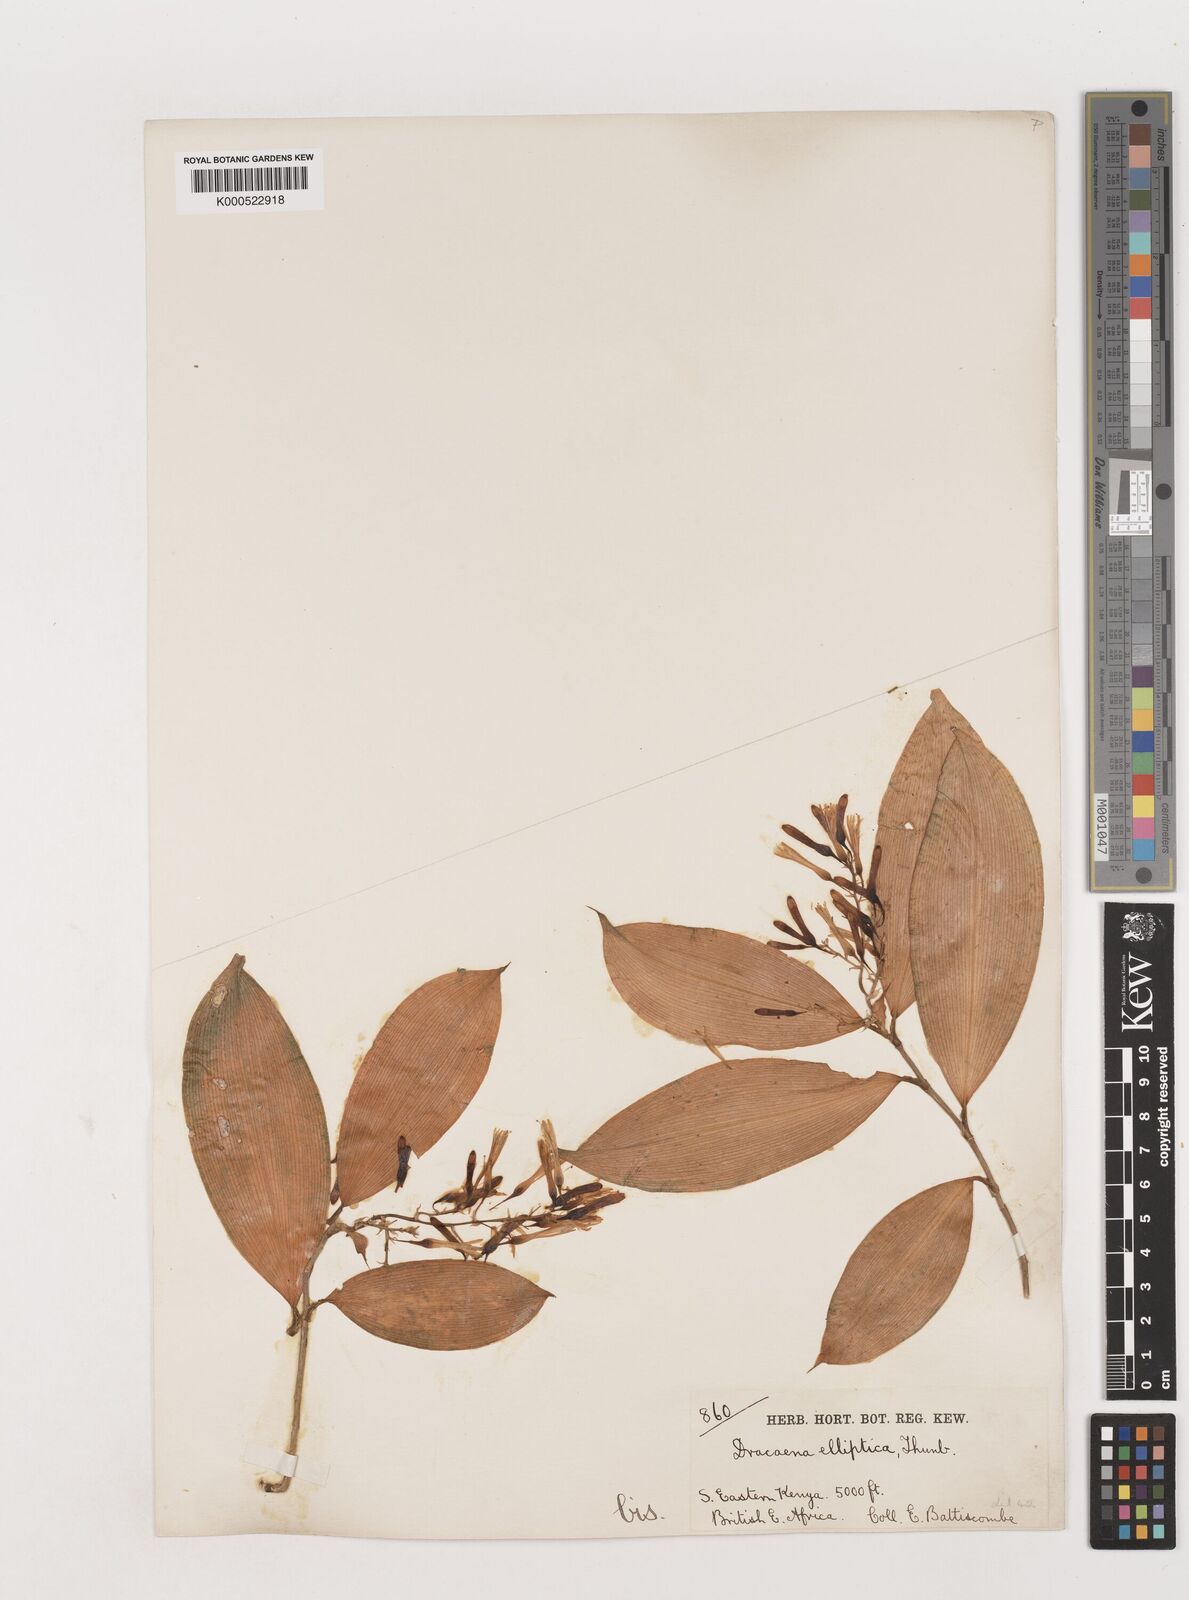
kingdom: Plantae
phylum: Tracheophyta
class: Liliopsida
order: Asparagales
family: Asparagaceae
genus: Dracaena
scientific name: Dracaena laxissima
